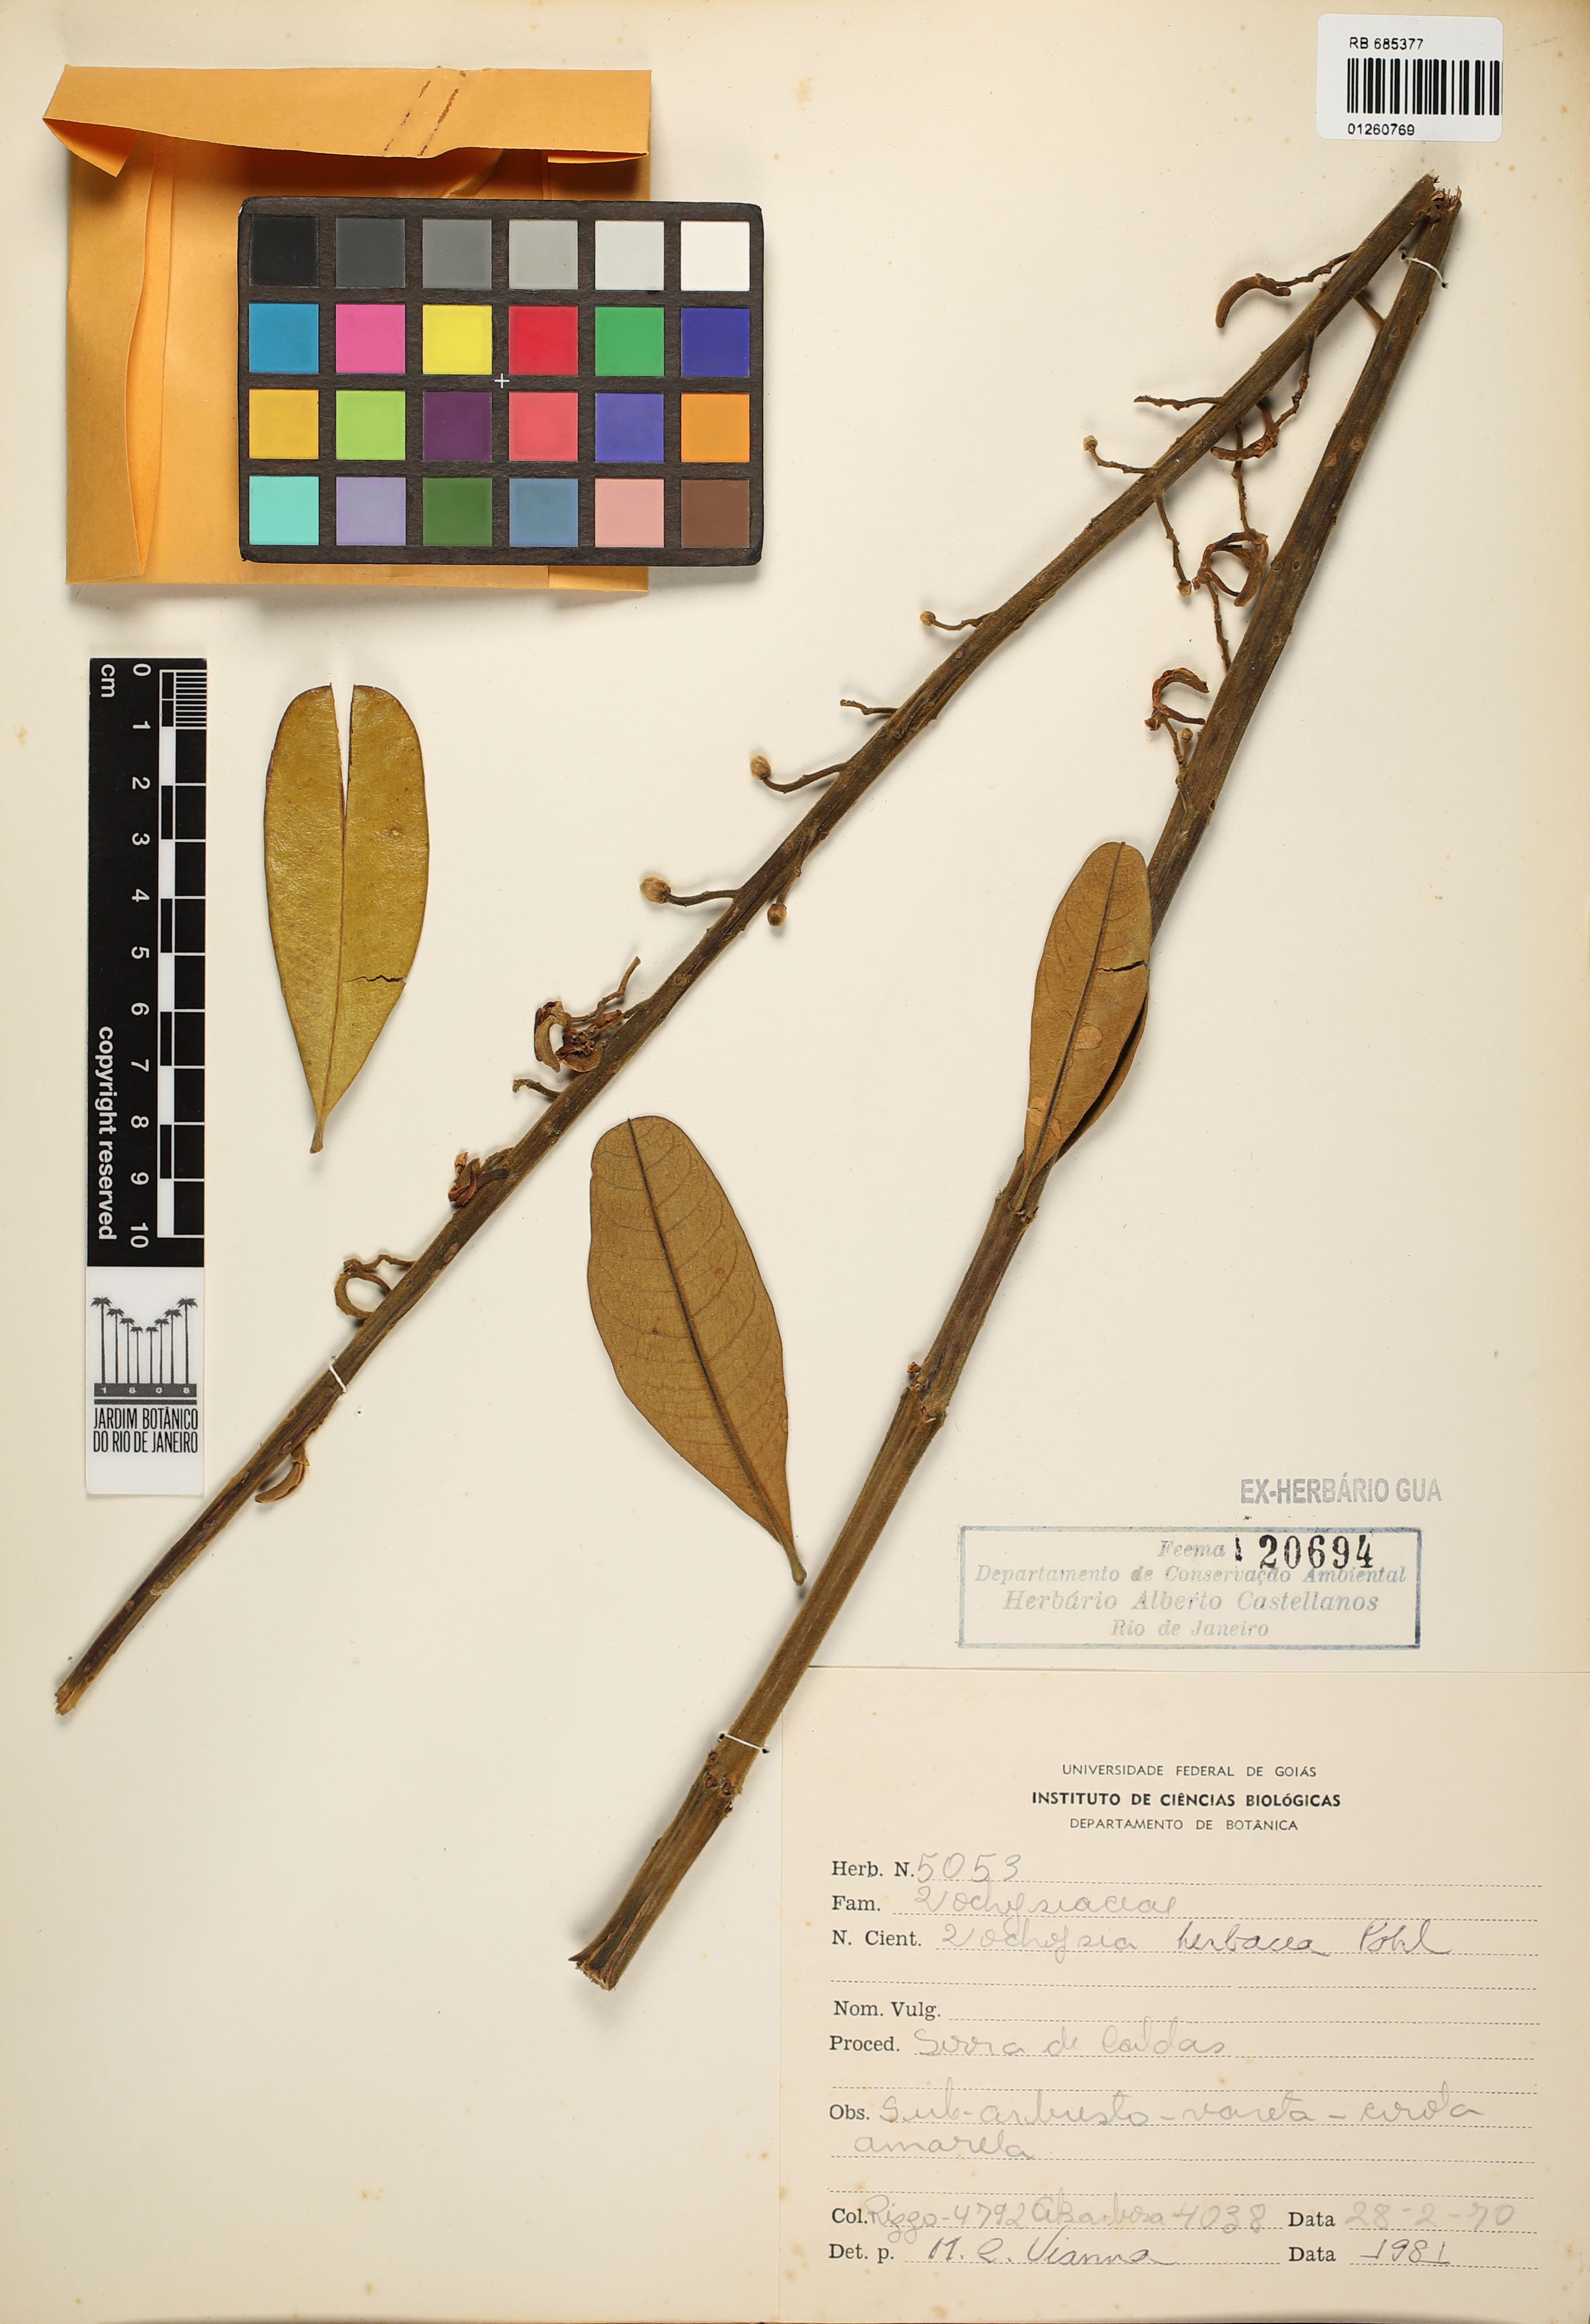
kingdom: Plantae
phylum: Tracheophyta
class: Magnoliopsida
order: Myrtales
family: Vochysiaceae
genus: Vochysia
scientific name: Vochysia herbacea
